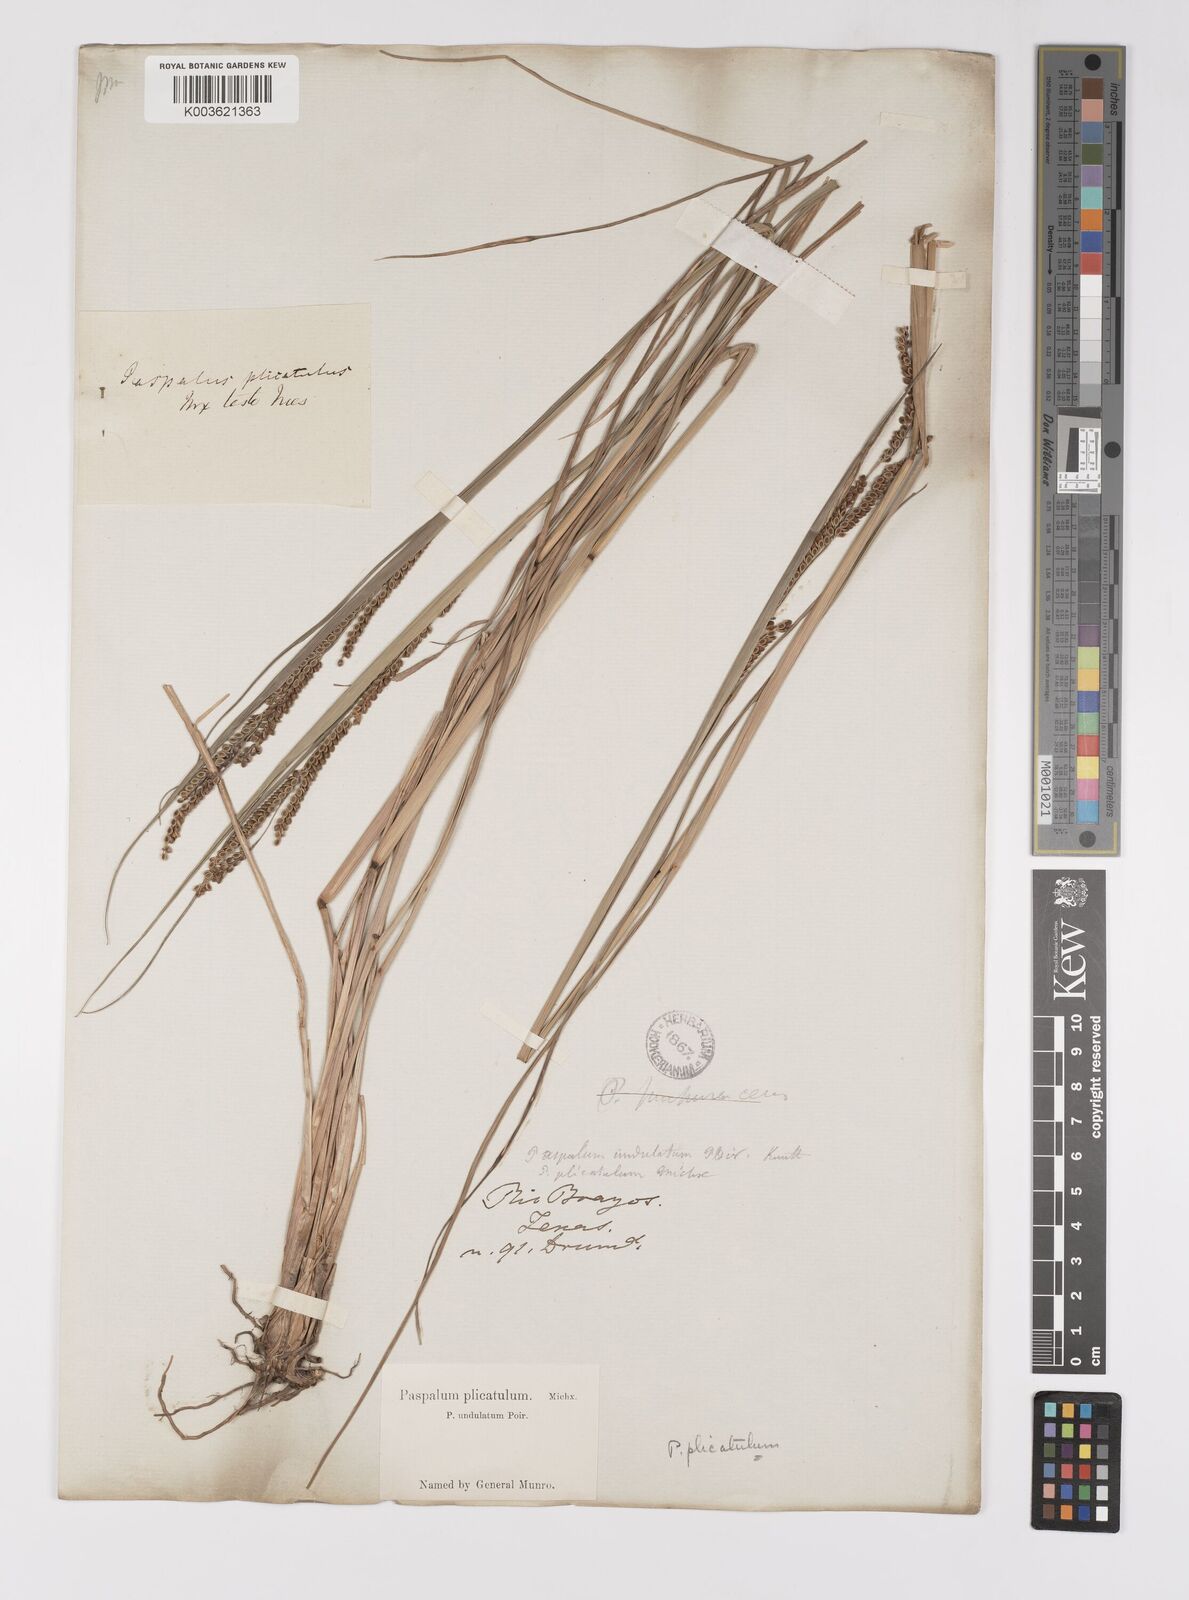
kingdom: Plantae
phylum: Tracheophyta
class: Liliopsida
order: Poales
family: Poaceae
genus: Paspalum
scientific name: Paspalum plicatulum
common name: Top paspalum
